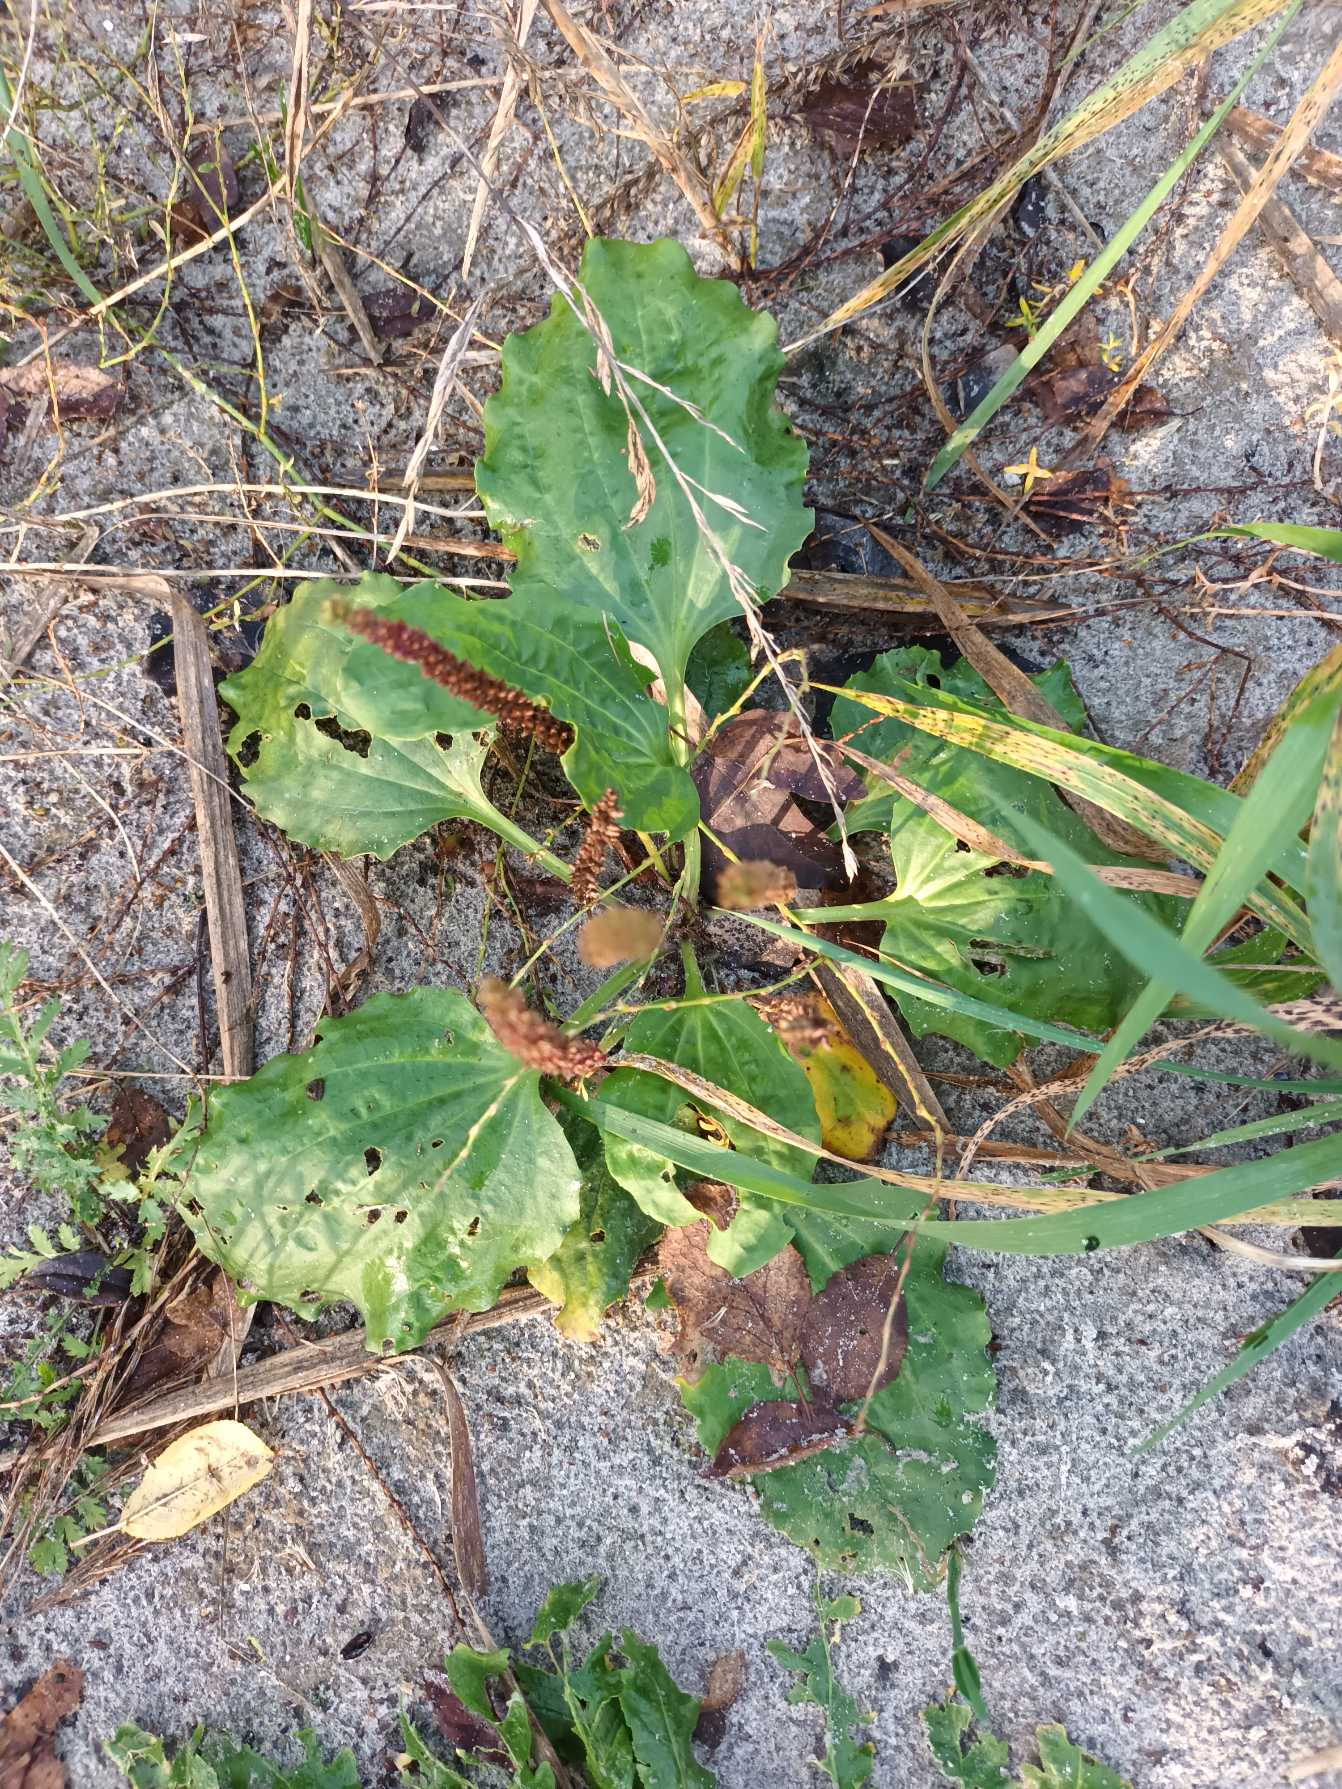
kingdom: Plantae
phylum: Tracheophyta
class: Magnoliopsida
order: Lamiales
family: Plantaginaceae
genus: Plantago
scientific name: Plantago major
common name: Glat vejbred
